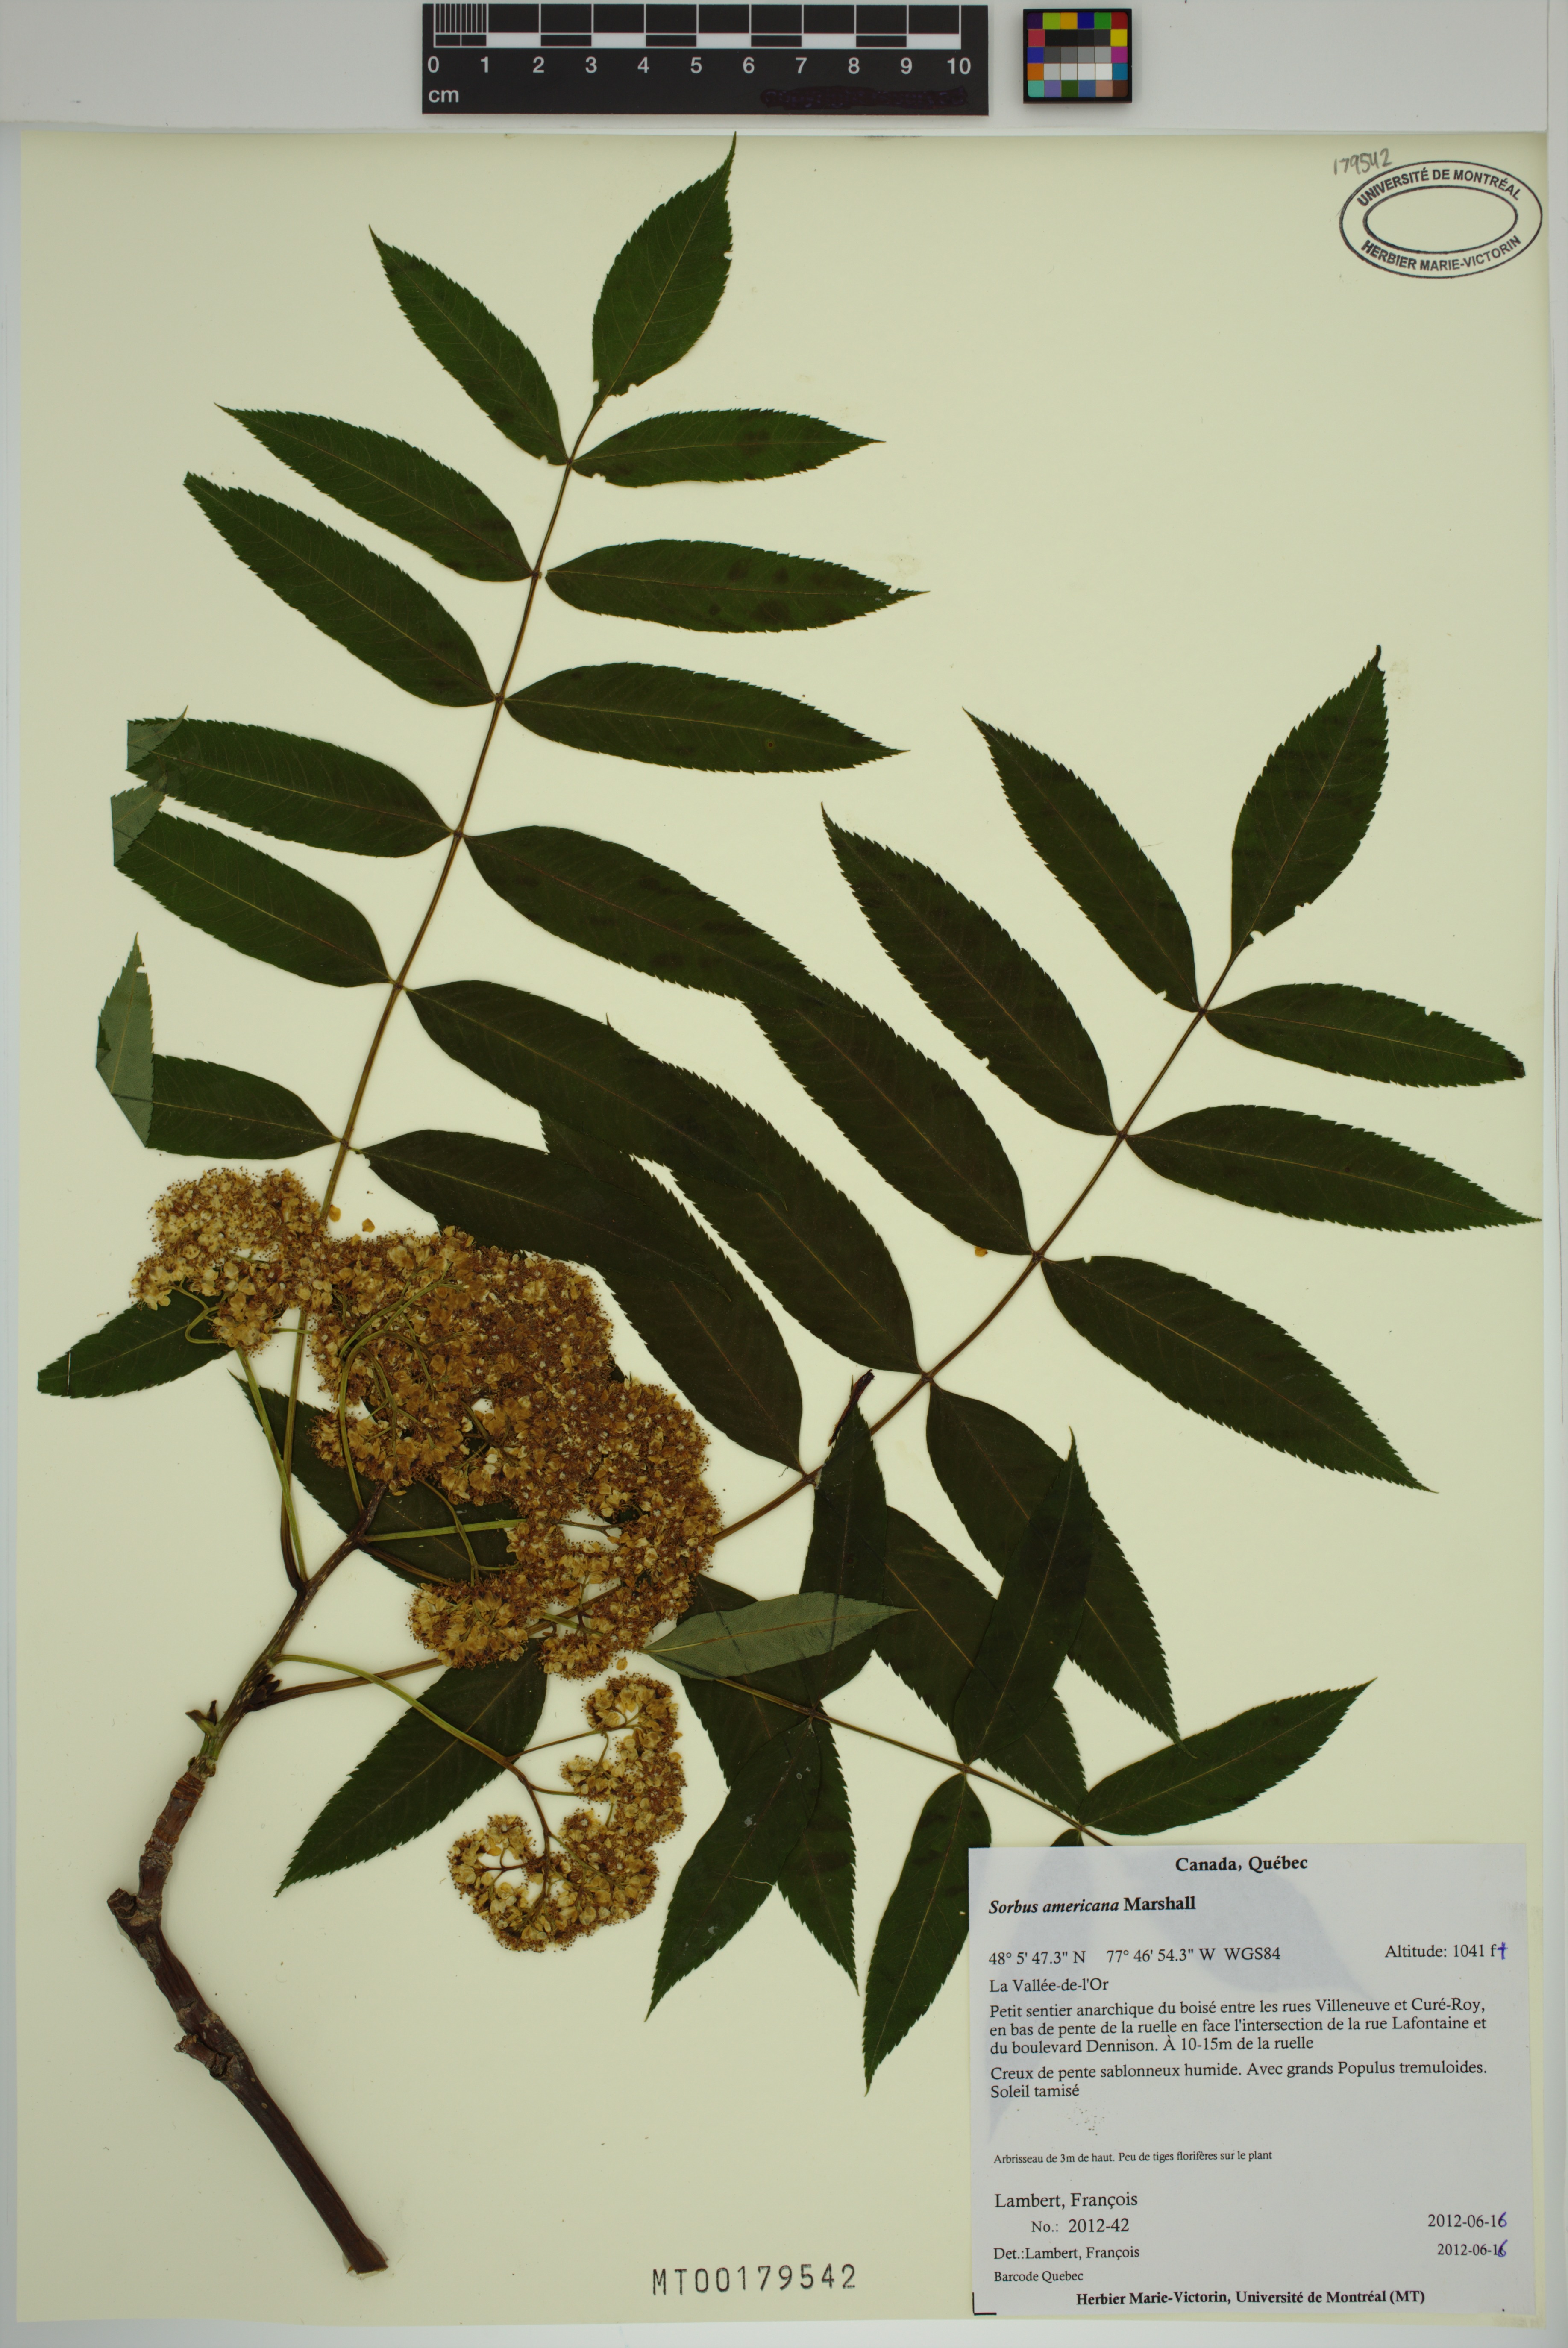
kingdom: Plantae
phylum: Tracheophyta
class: Magnoliopsida
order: Rosales
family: Rosaceae
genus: Sorbus
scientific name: Sorbus americana
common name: American mountain-ash
